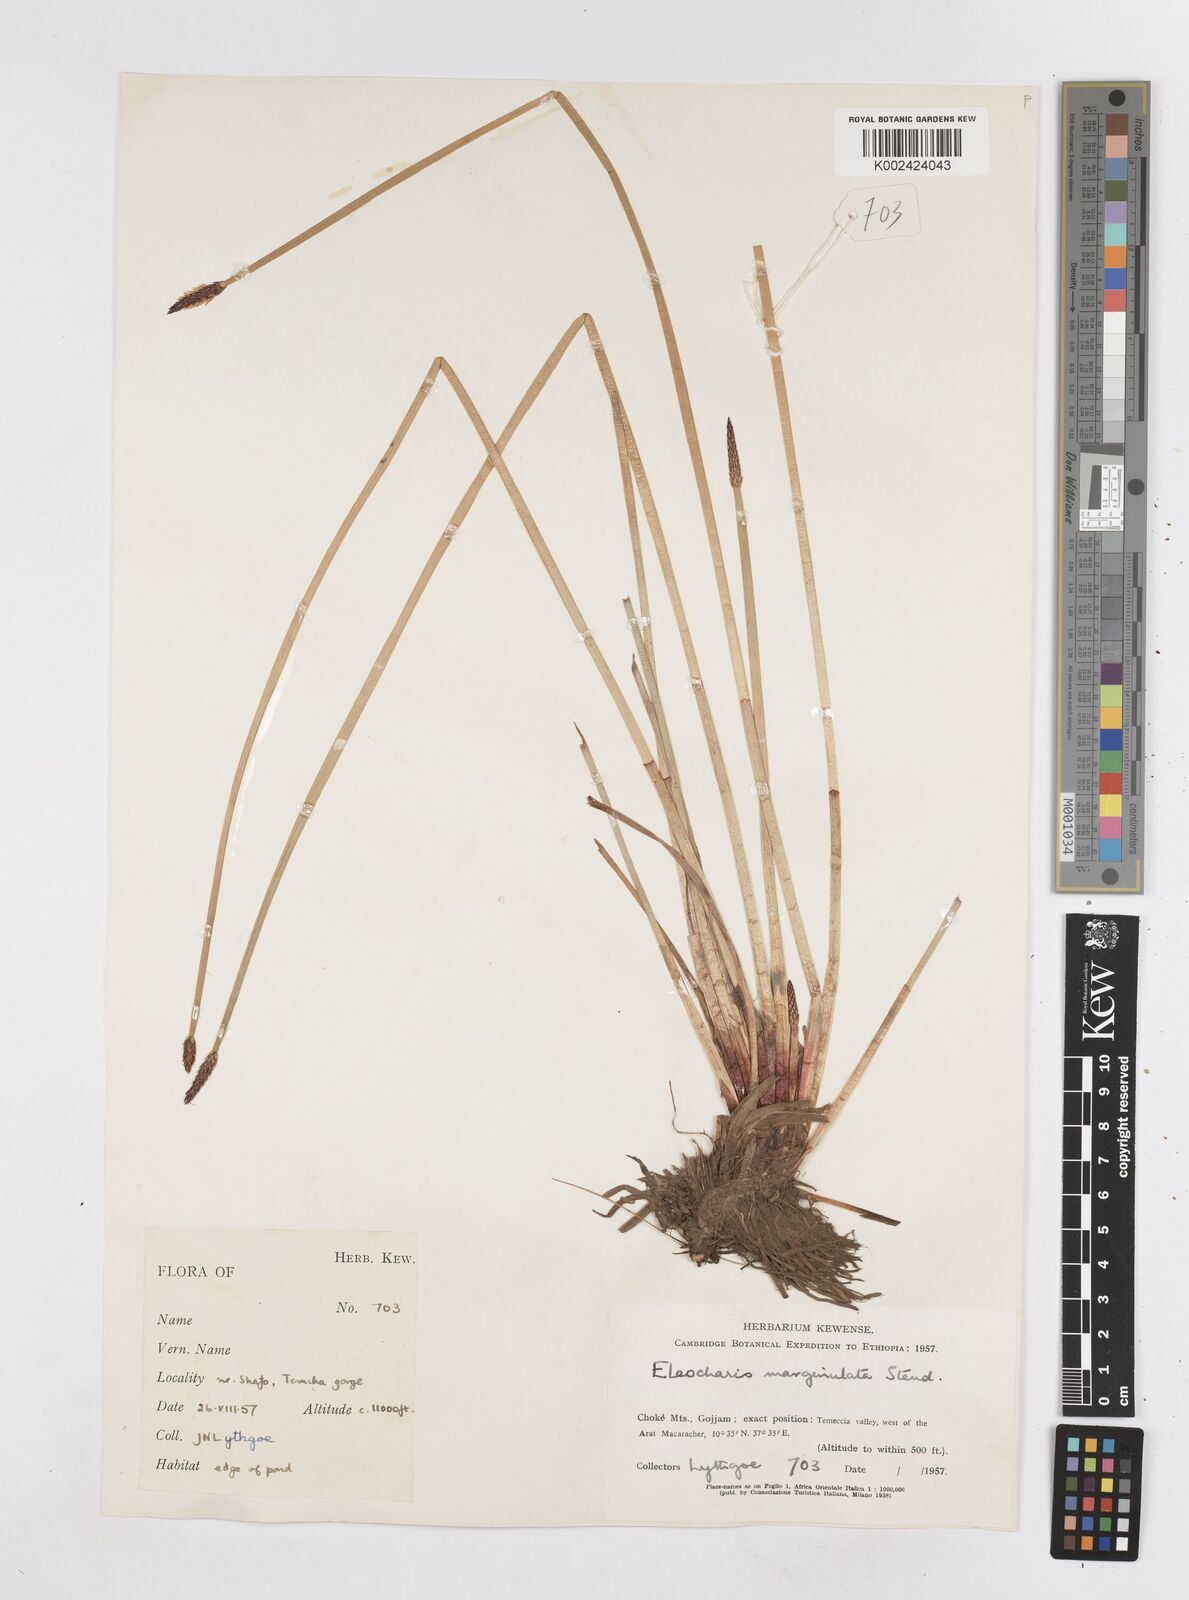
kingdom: Plantae
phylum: Tracheophyta
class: Liliopsida
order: Poales
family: Cyperaceae
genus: Eleocharis
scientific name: Eleocharis marginulata
